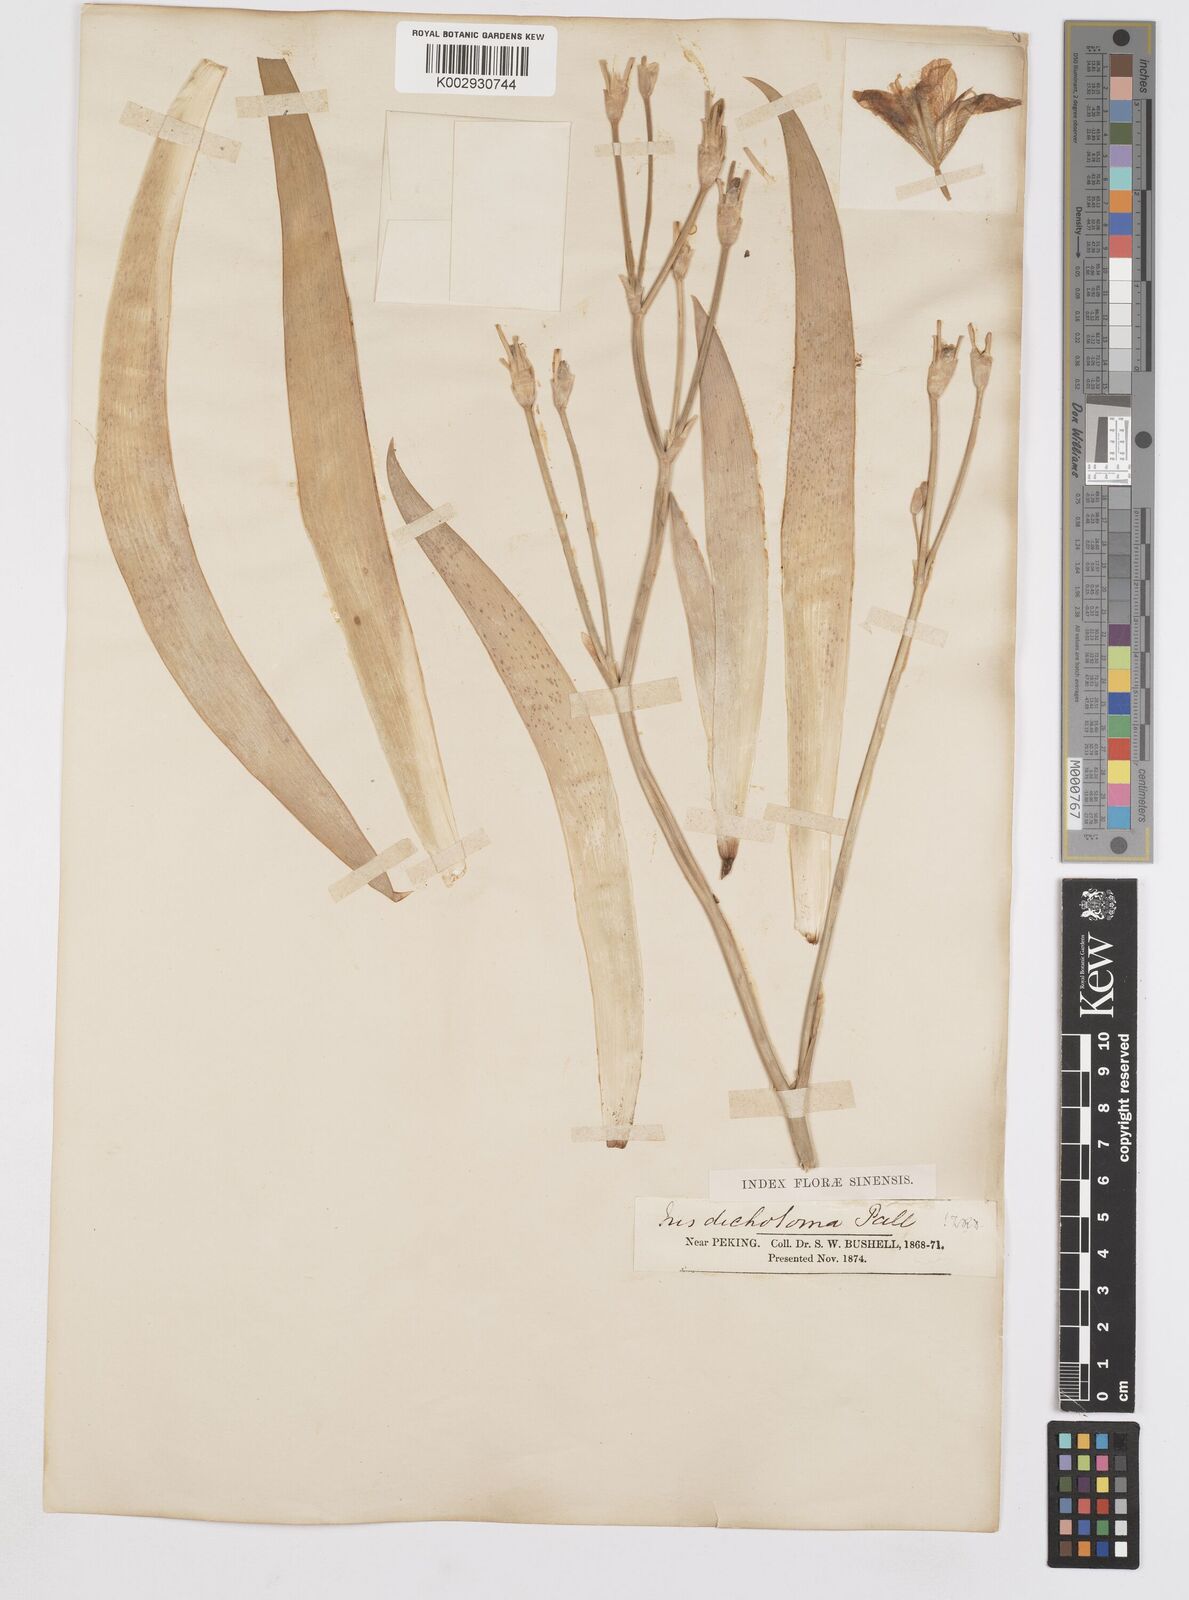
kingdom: Plantae
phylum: Tracheophyta
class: Liliopsida
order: Asparagales
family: Iridaceae
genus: Iris
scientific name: Iris dichotoma
